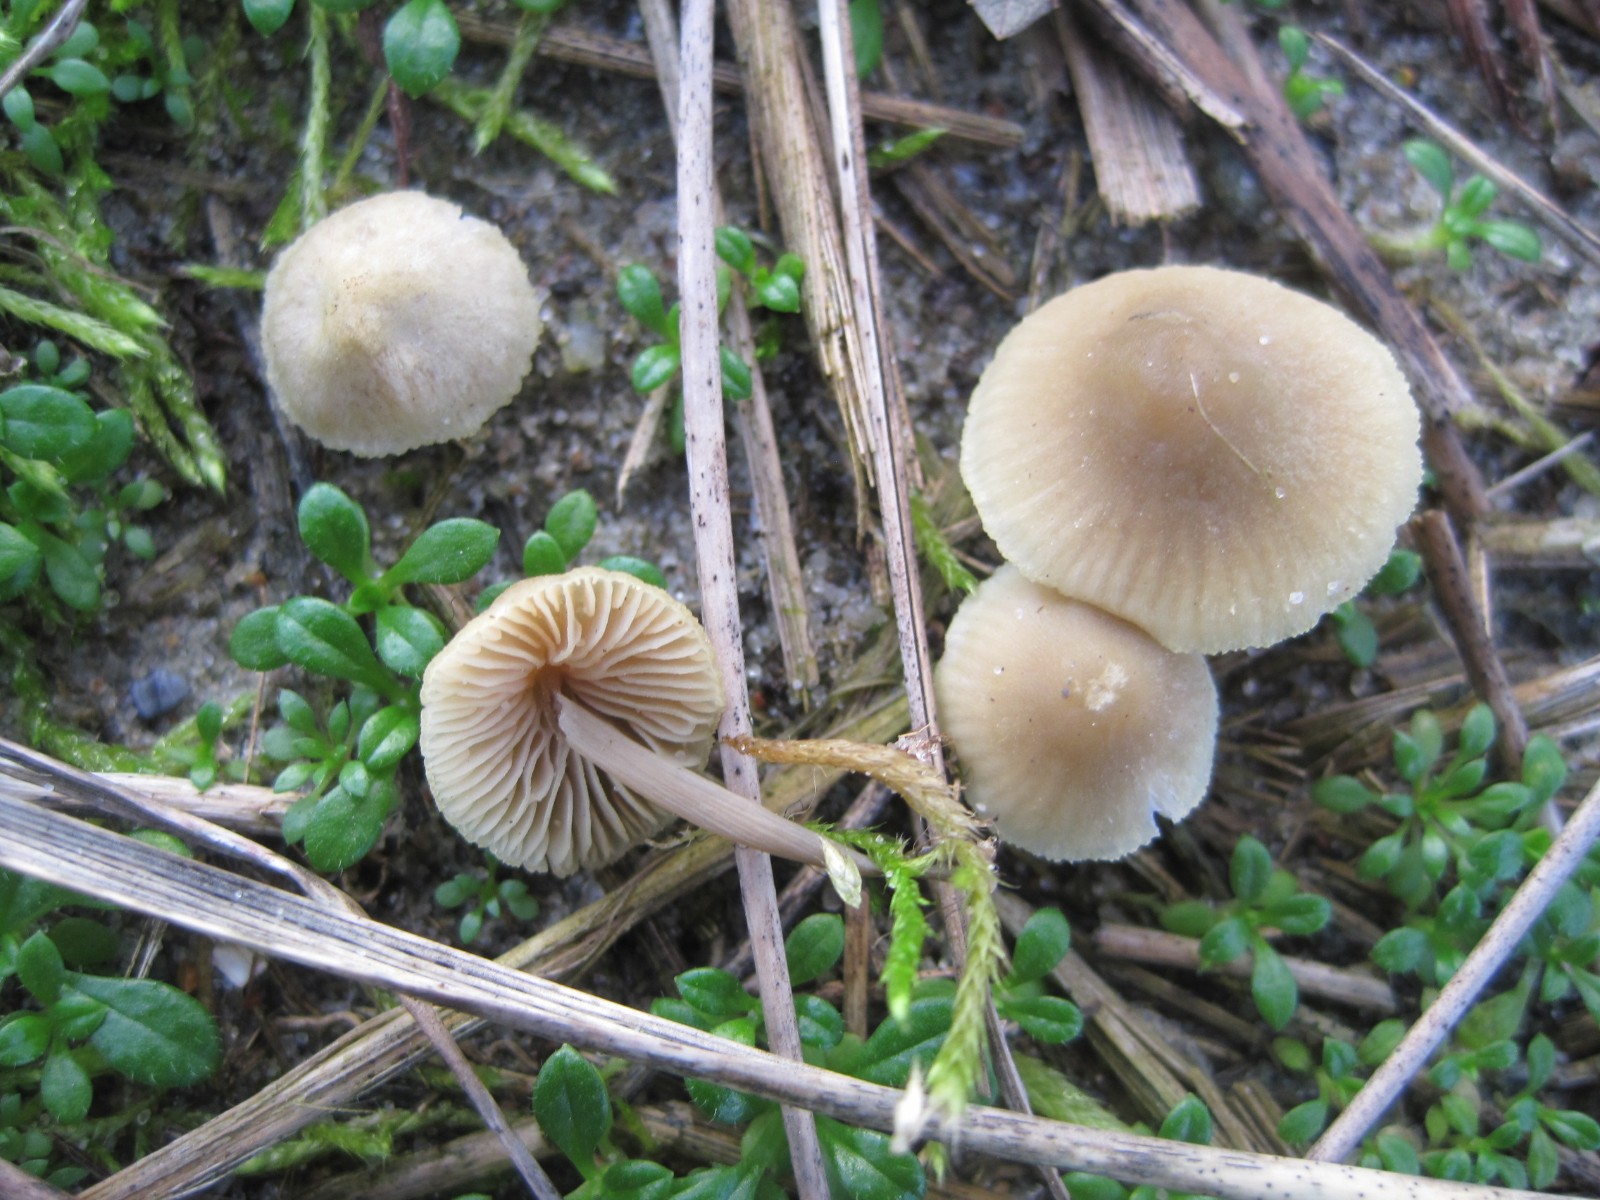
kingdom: Fungi
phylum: Basidiomycota
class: Agaricomycetes
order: Agaricales
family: Mycenaceae
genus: Mycena
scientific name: Mycena chlorantha
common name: klit-huesvamp
